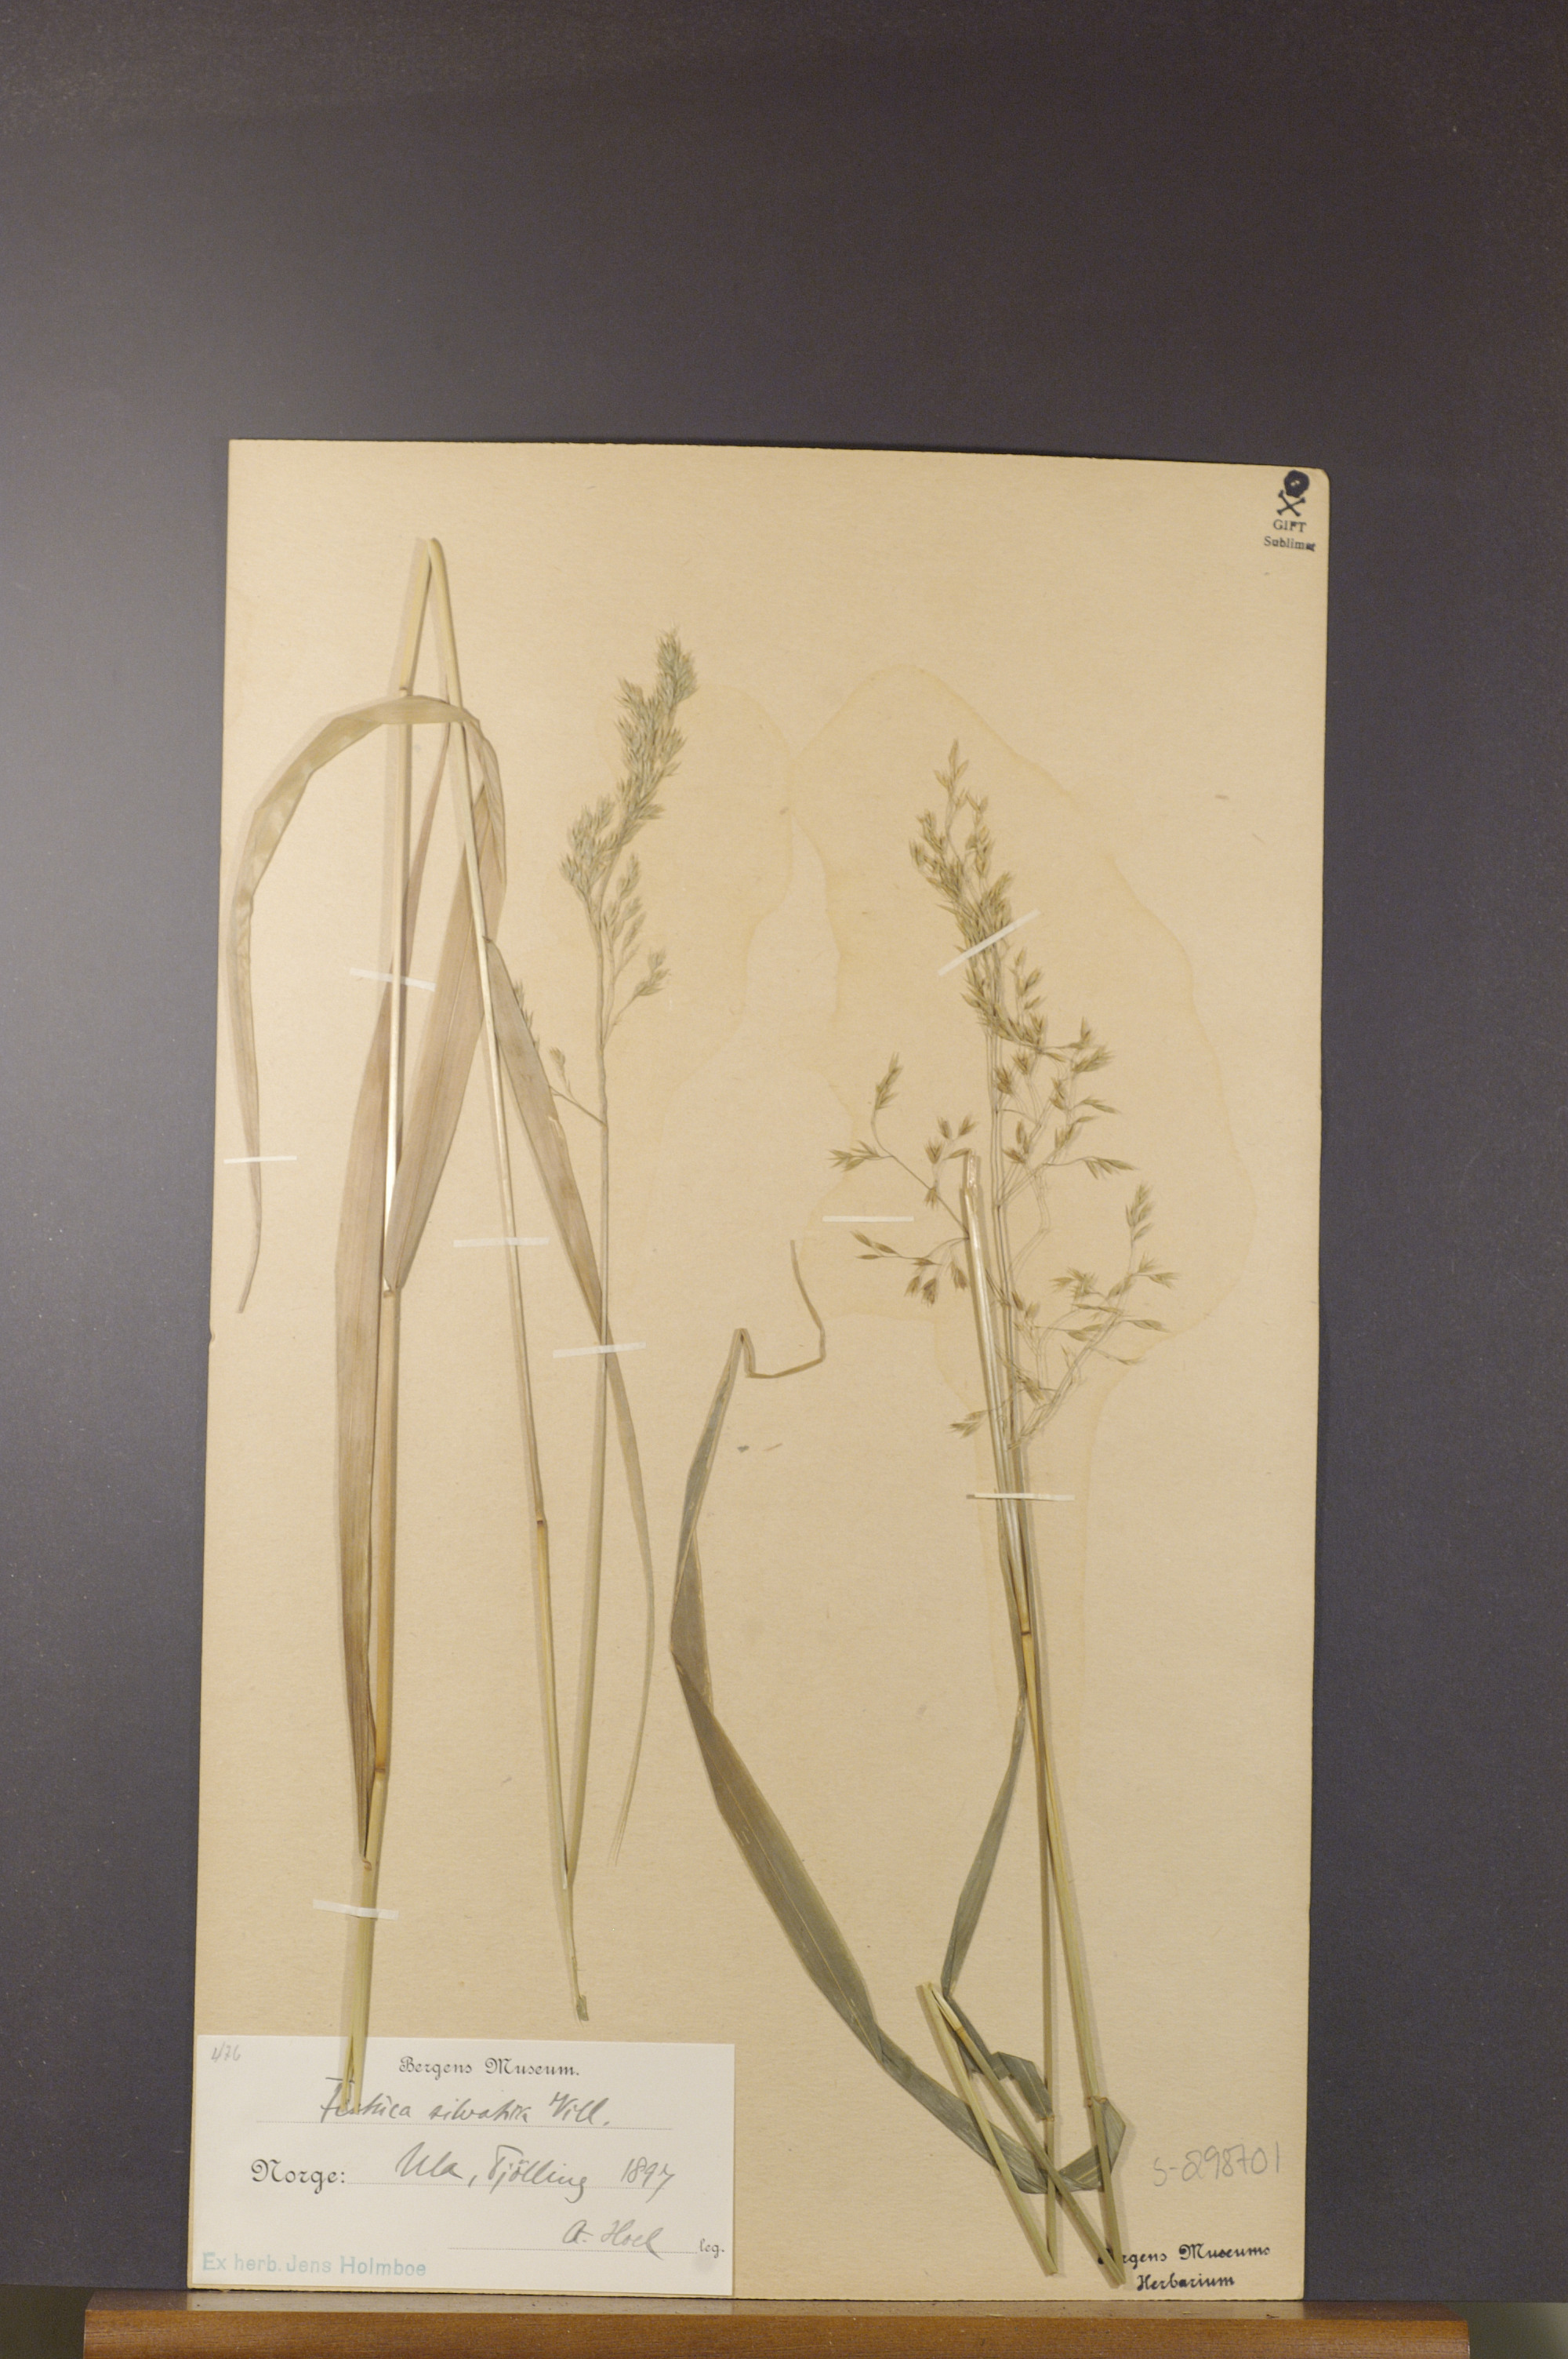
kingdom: Plantae
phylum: Tracheophyta
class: Liliopsida
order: Poales
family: Poaceae
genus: Festuca
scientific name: Festuca altissima
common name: Wood fescue
